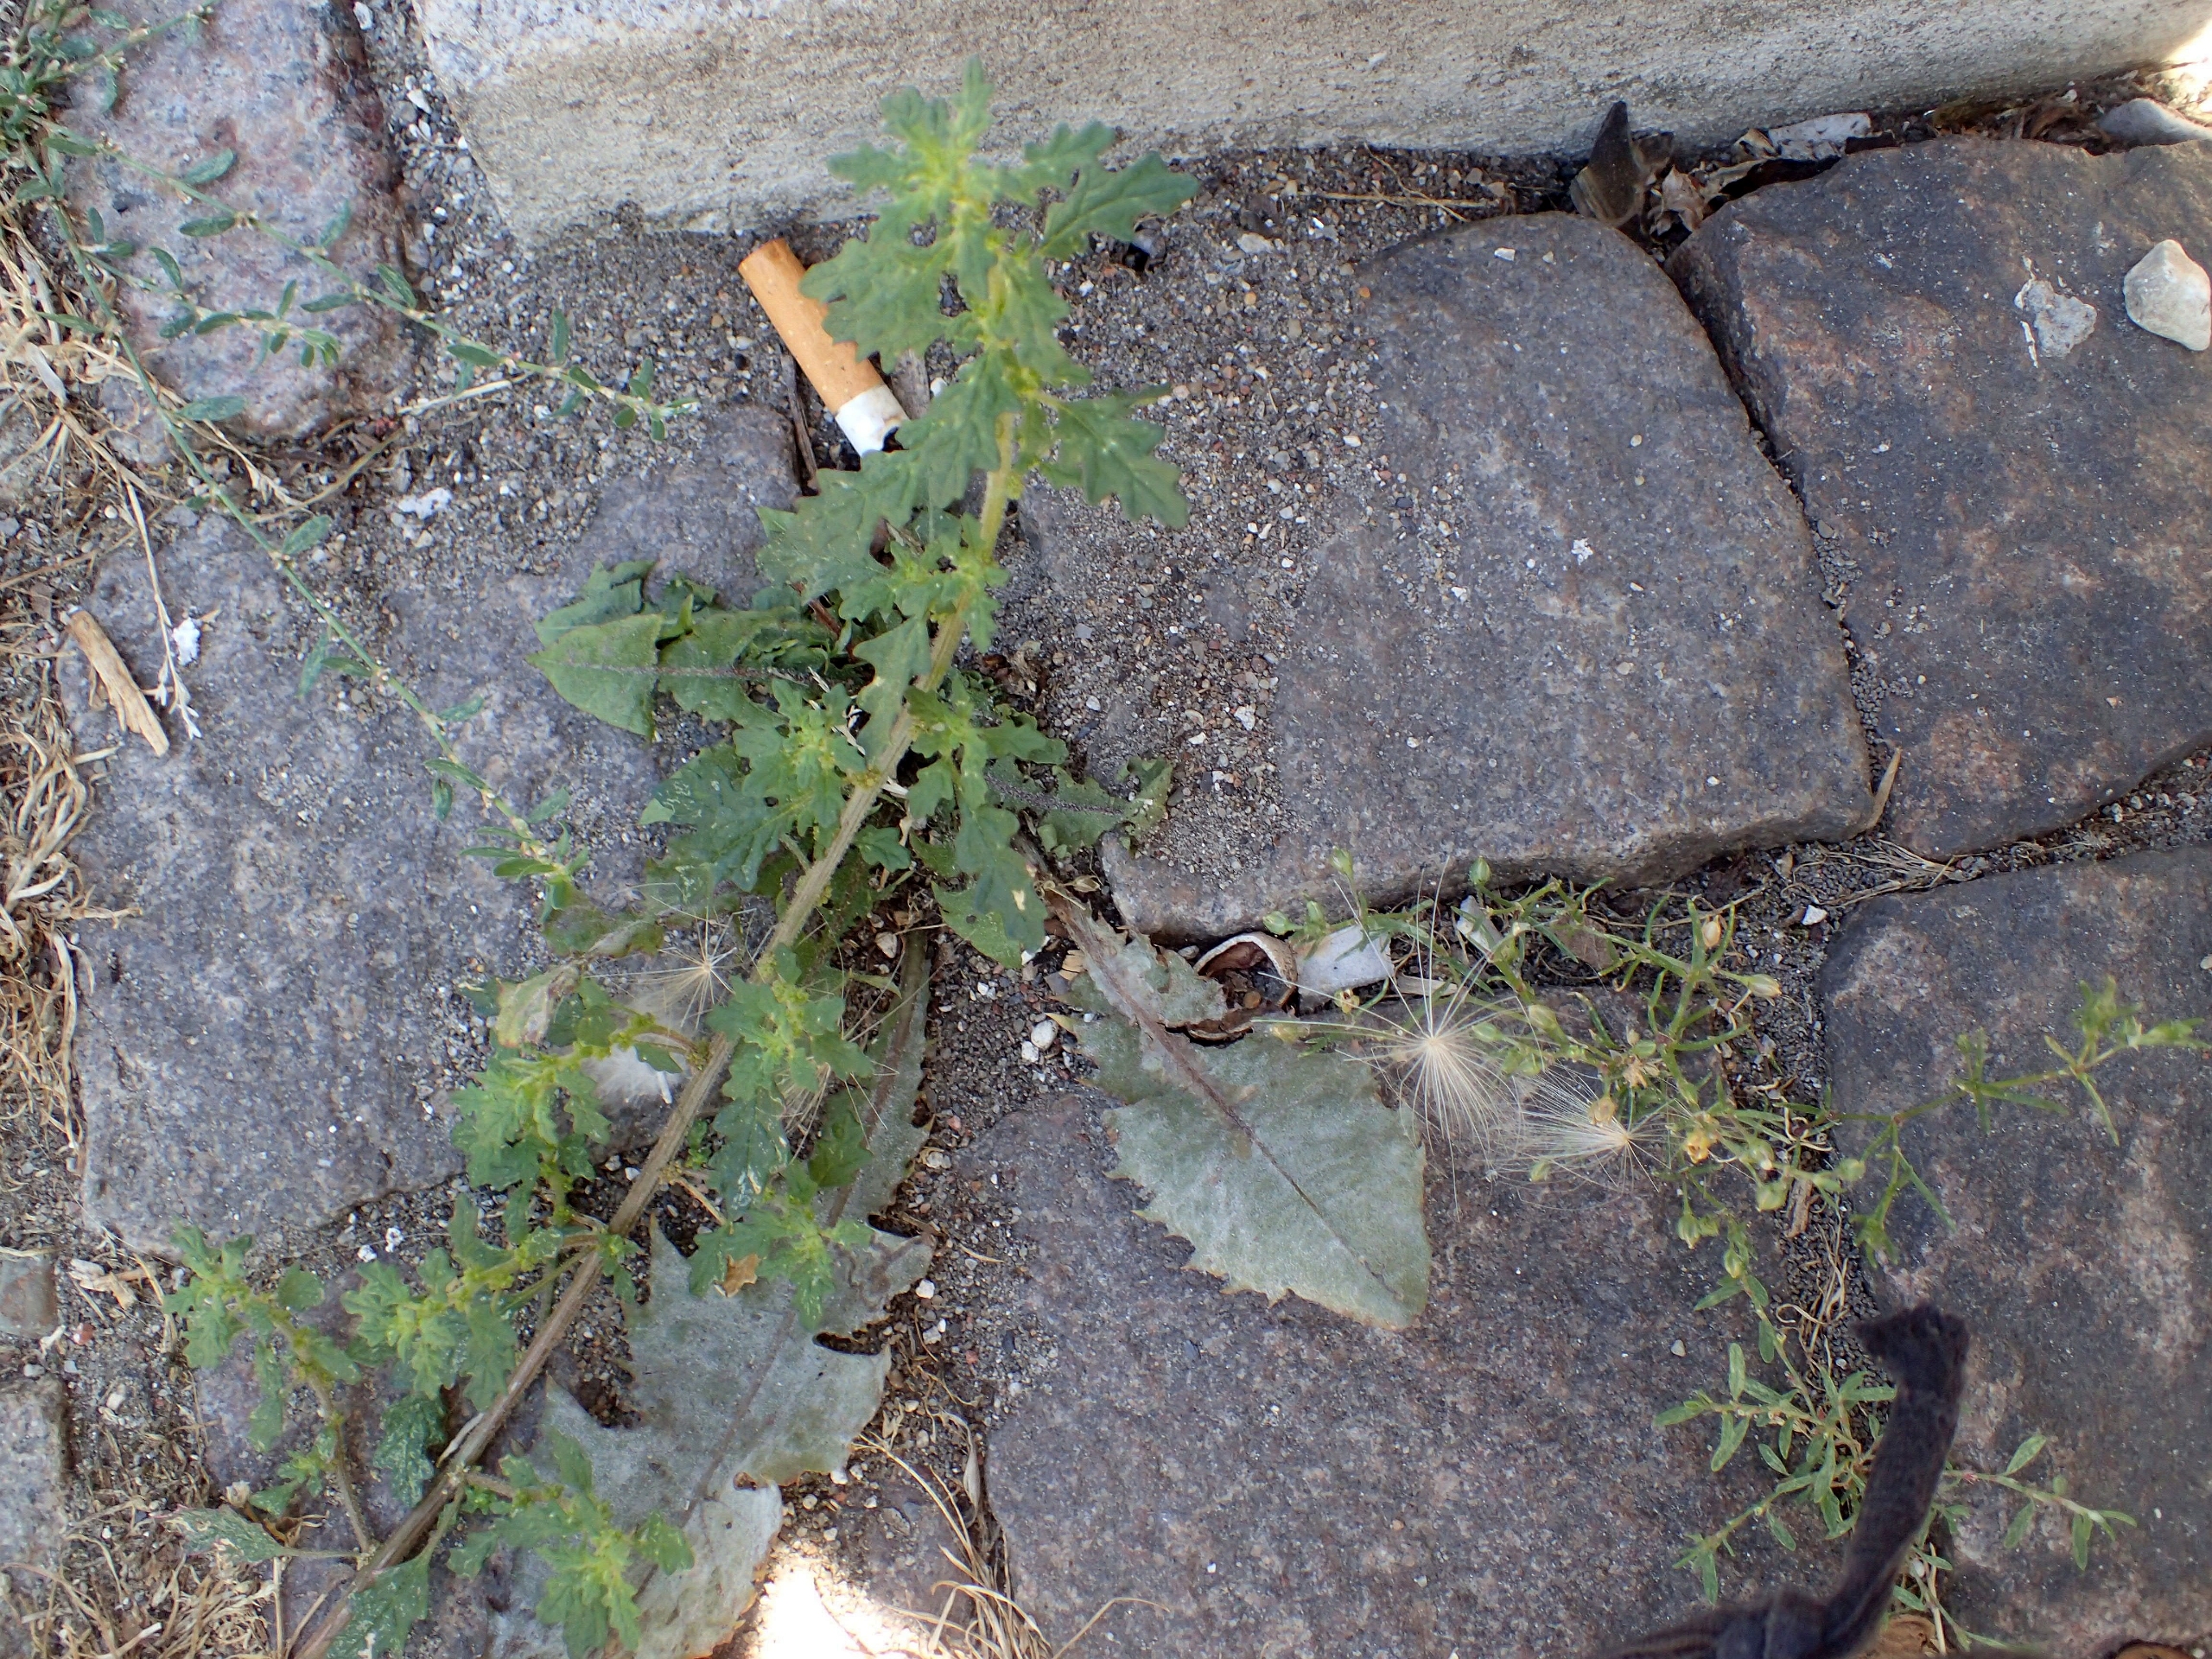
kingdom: Plantae
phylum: Tracheophyta
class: Magnoliopsida
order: Caryophyllales
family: Amaranthaceae
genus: Dysphania
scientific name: Dysphania pumilio
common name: Dværg-gåsefod
